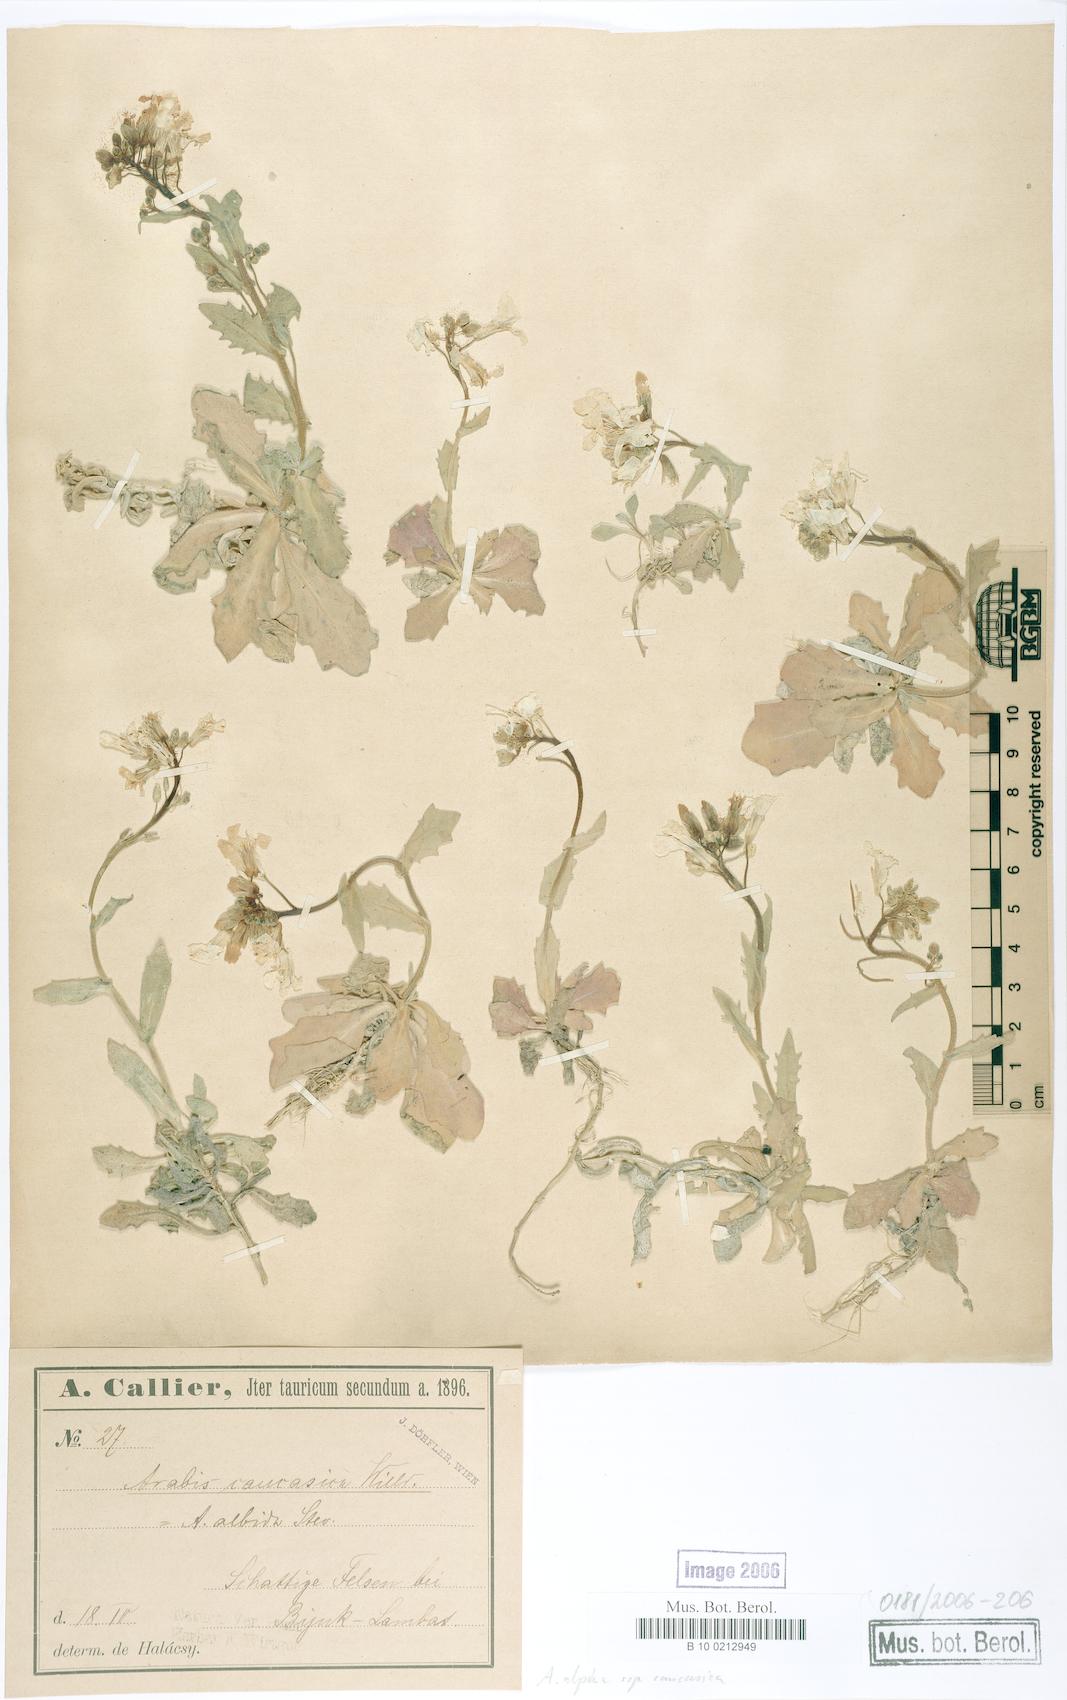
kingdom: Plantae
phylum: Tracheophyta
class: Magnoliopsida
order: Brassicales
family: Brassicaceae
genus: Arabis
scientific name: Arabis caucasica
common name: Gray rockcress
